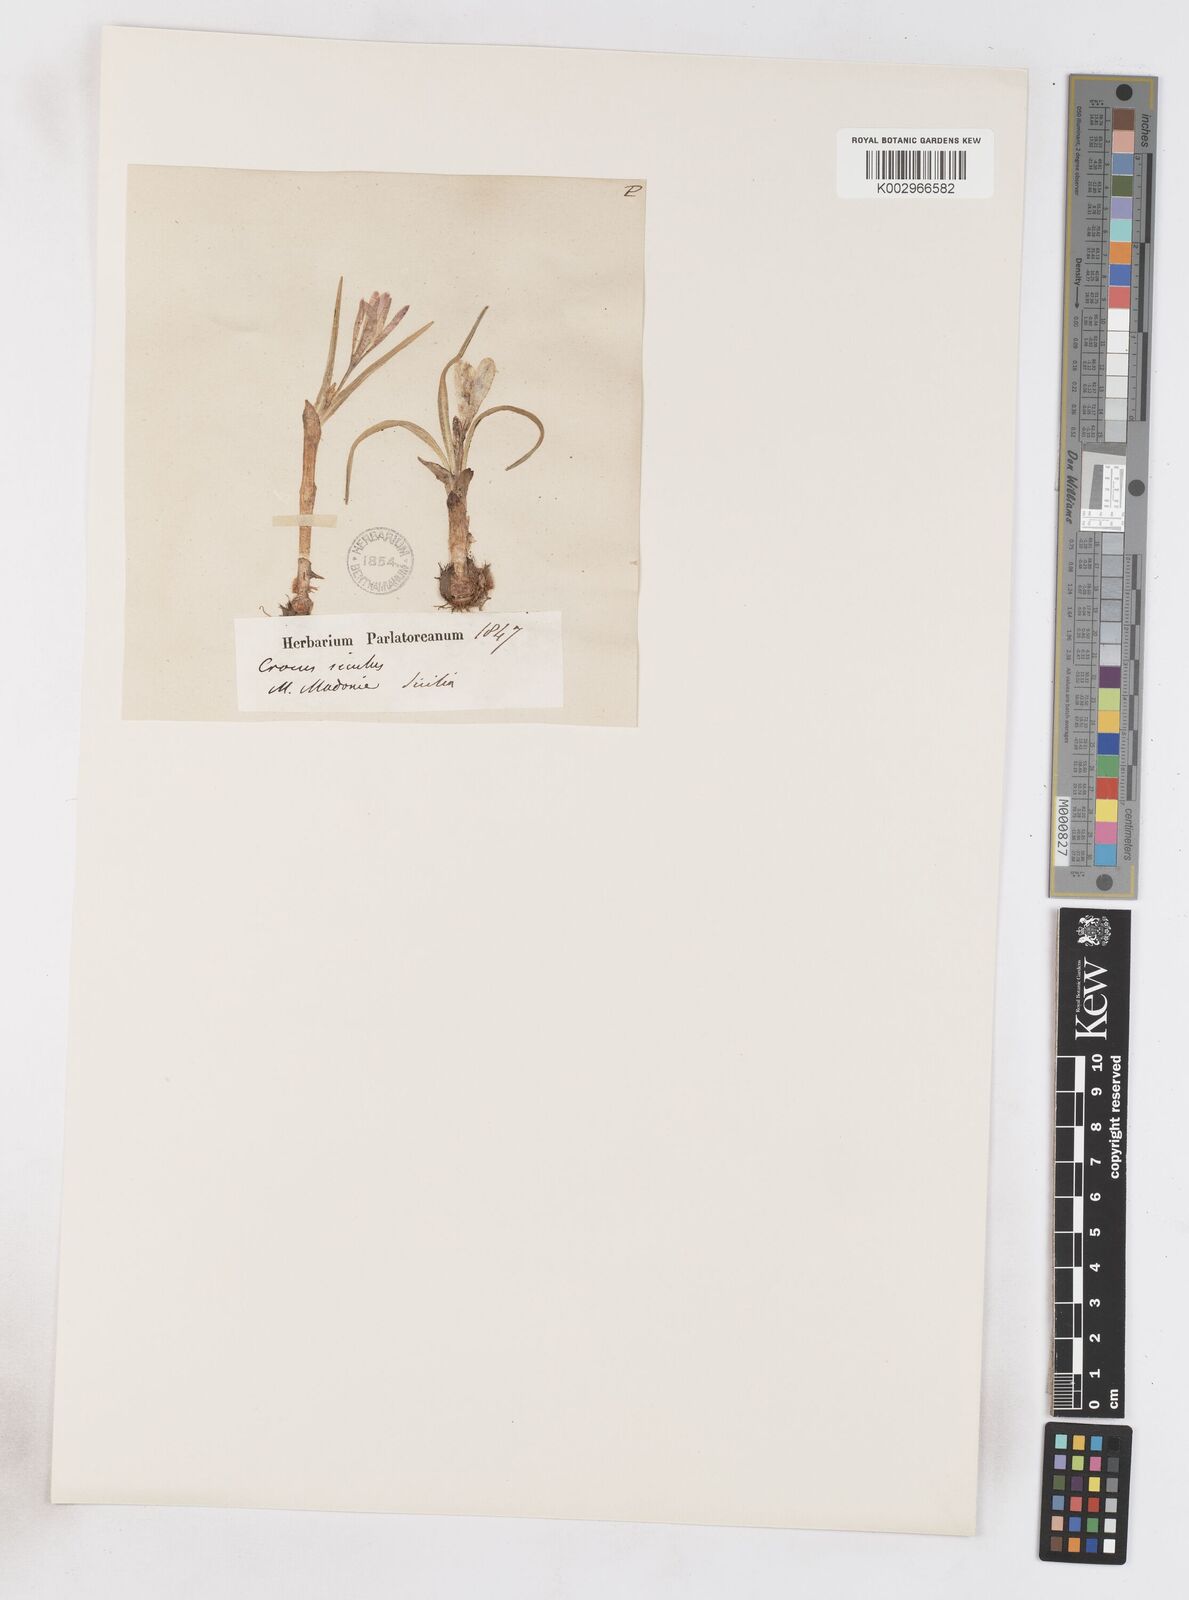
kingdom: Plantae
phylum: Tracheophyta
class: Liliopsida
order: Asparagales
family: Iridaceae
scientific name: Iridaceae
